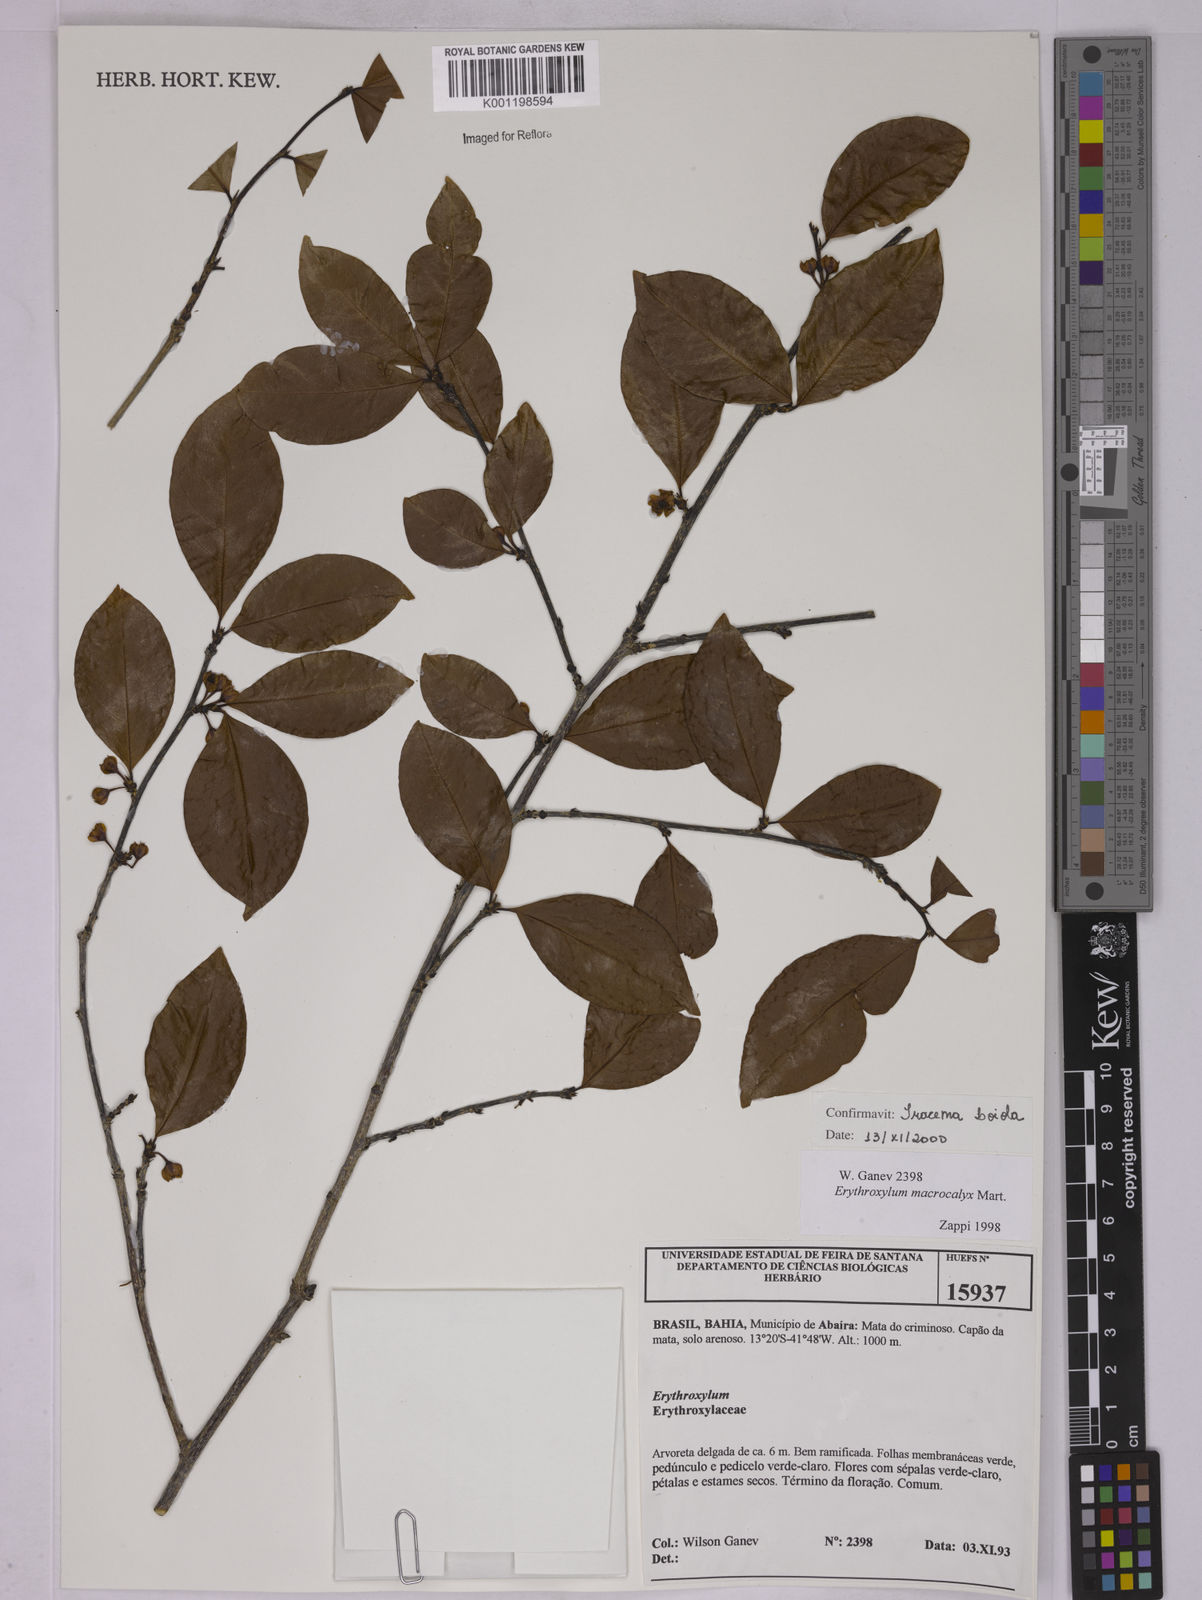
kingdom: Plantae
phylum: Tracheophyta
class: Magnoliopsida
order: Malpighiales
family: Erythroxylaceae
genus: Erythroxylum
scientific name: Erythroxylum macrocalyx
